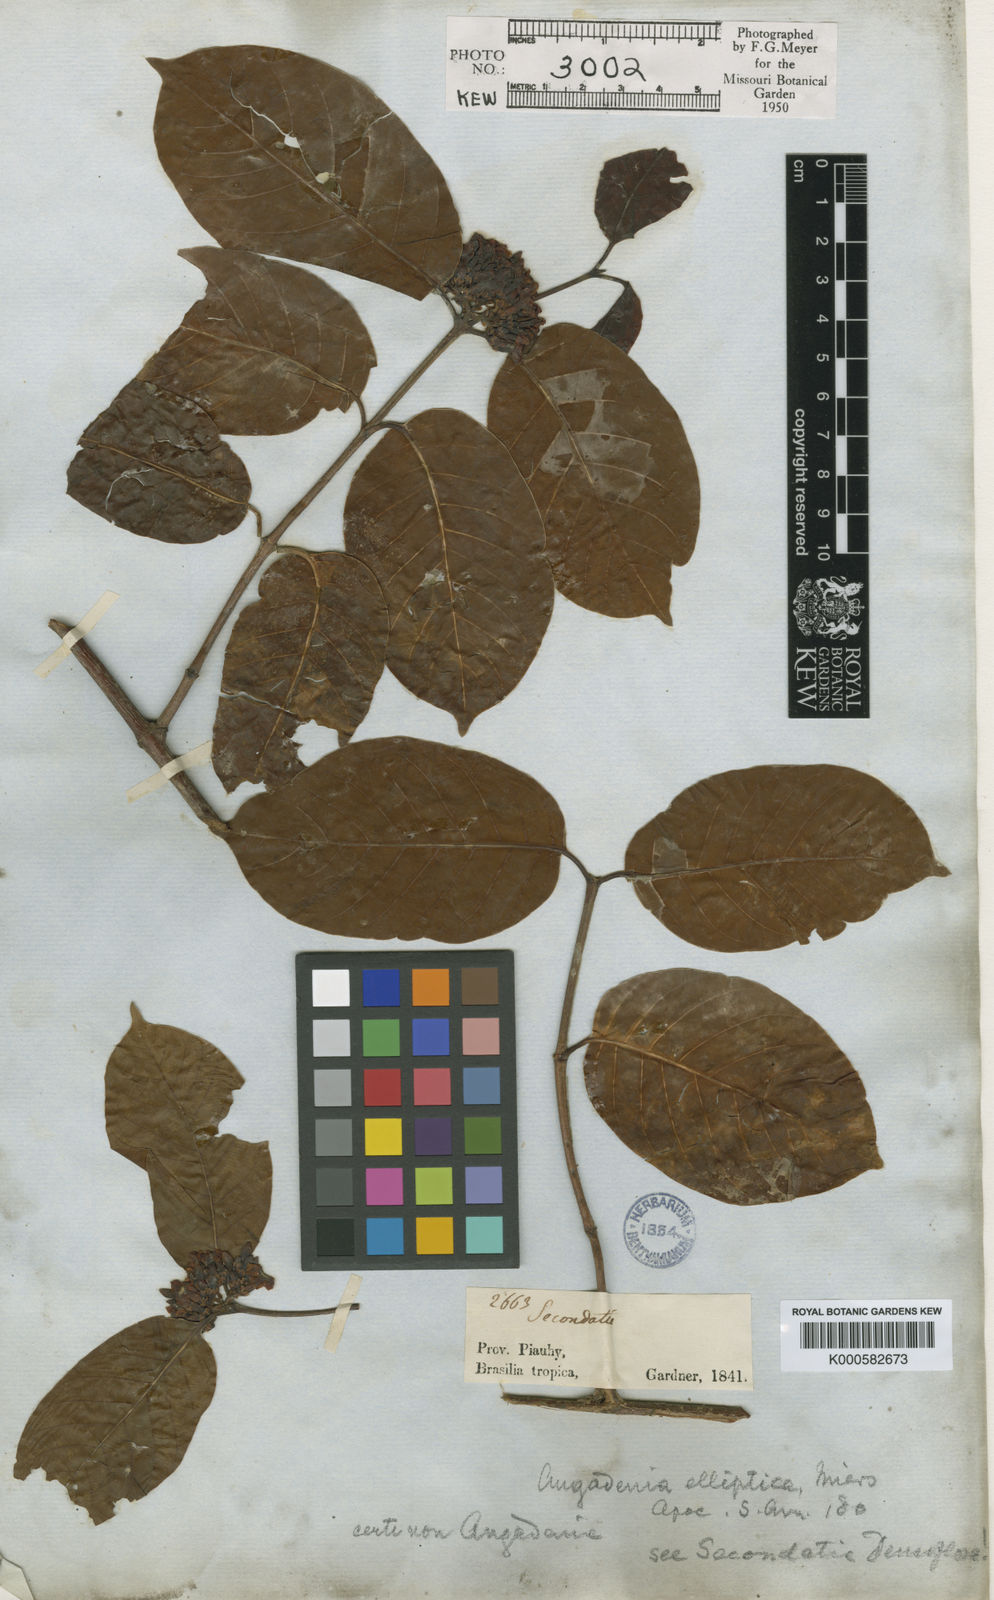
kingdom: Plantae
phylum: Tracheophyta
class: Magnoliopsida
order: Gentianales
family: Apocynaceae
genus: Secondatia
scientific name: Secondatia densiflora
